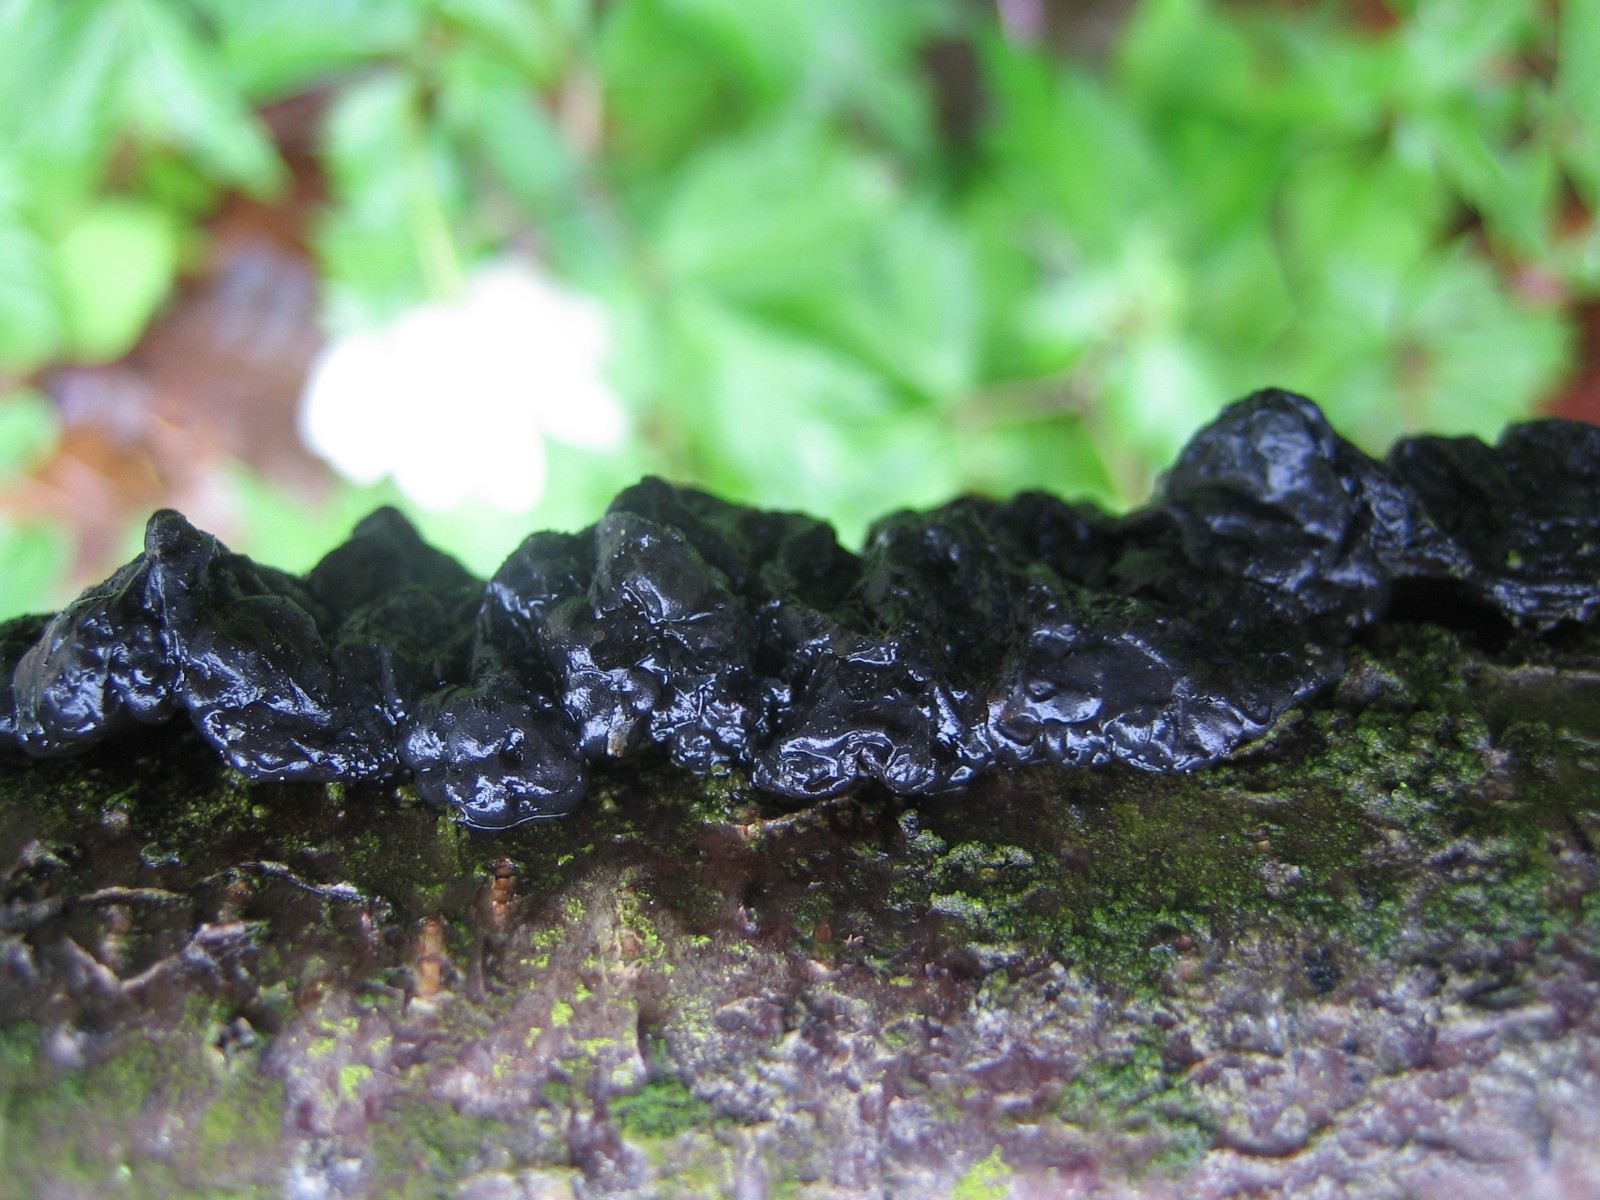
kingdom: Fungi
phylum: Basidiomycota
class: Agaricomycetes
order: Auriculariales
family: Auriculariaceae
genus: Exidia
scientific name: Exidia nigricans
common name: almindelig bævretop
